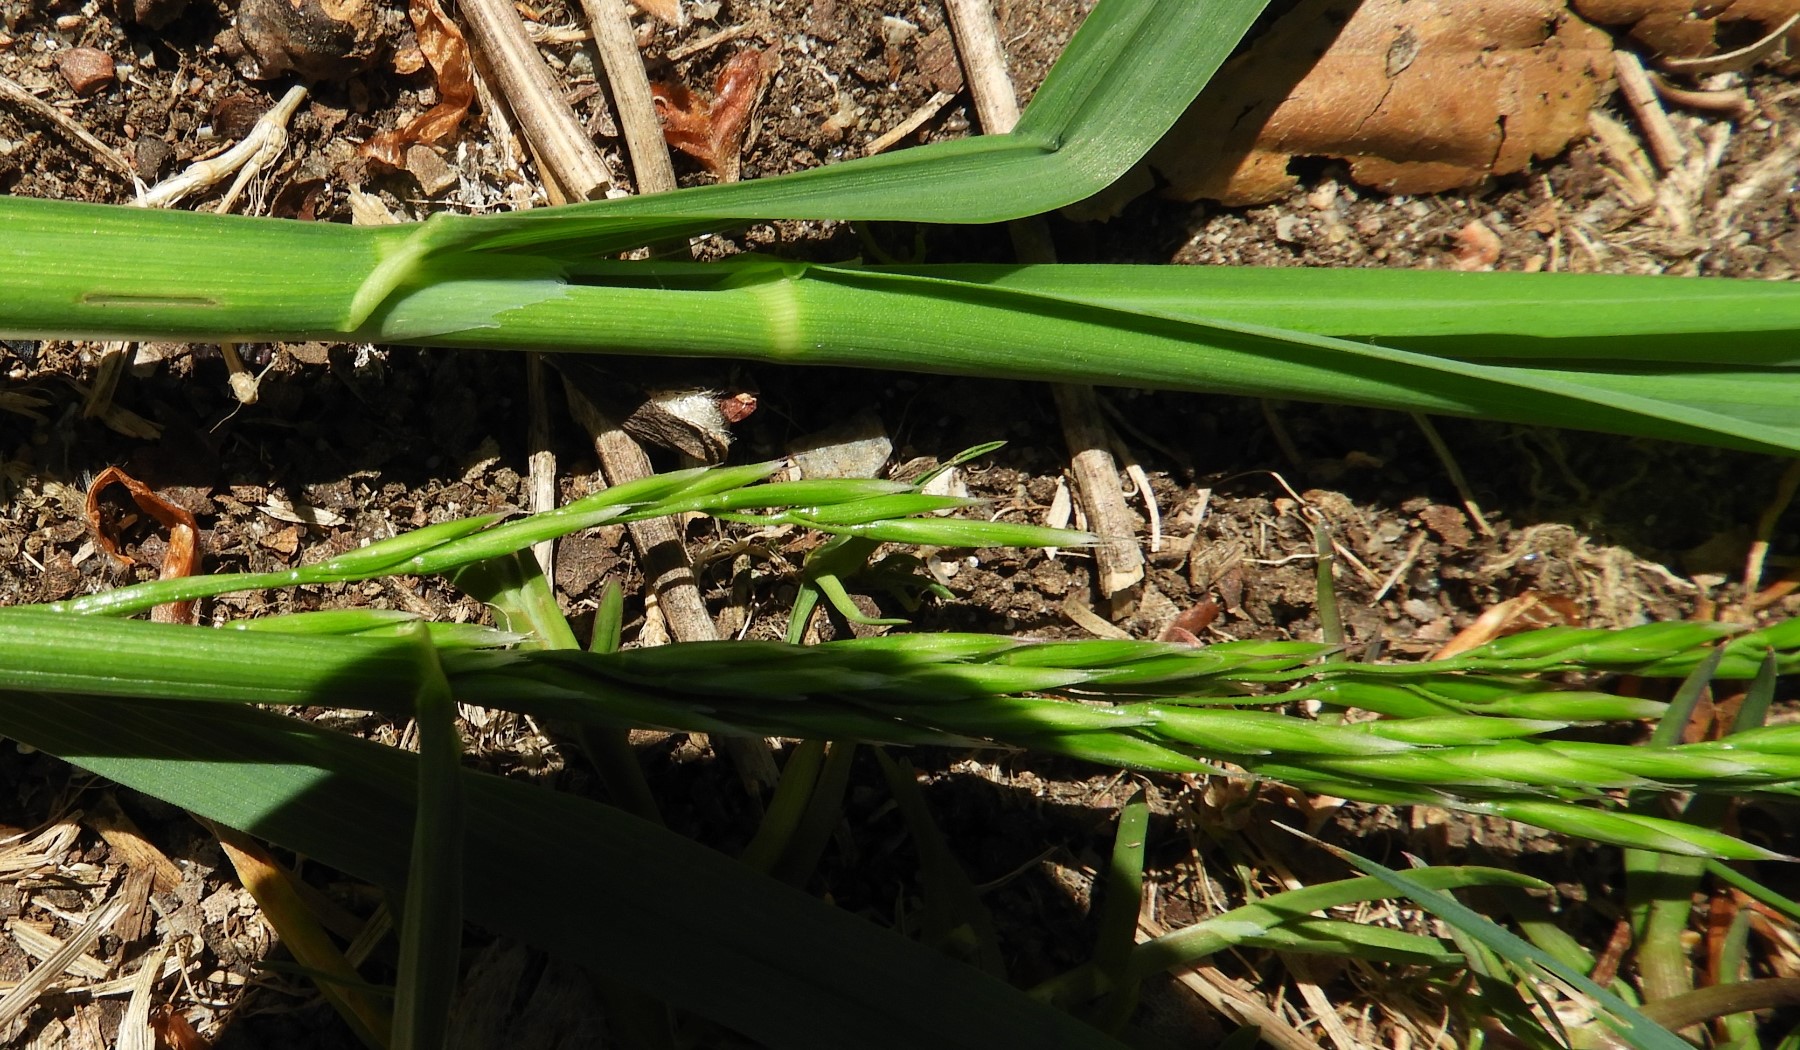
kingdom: Fungi
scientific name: Fungi
